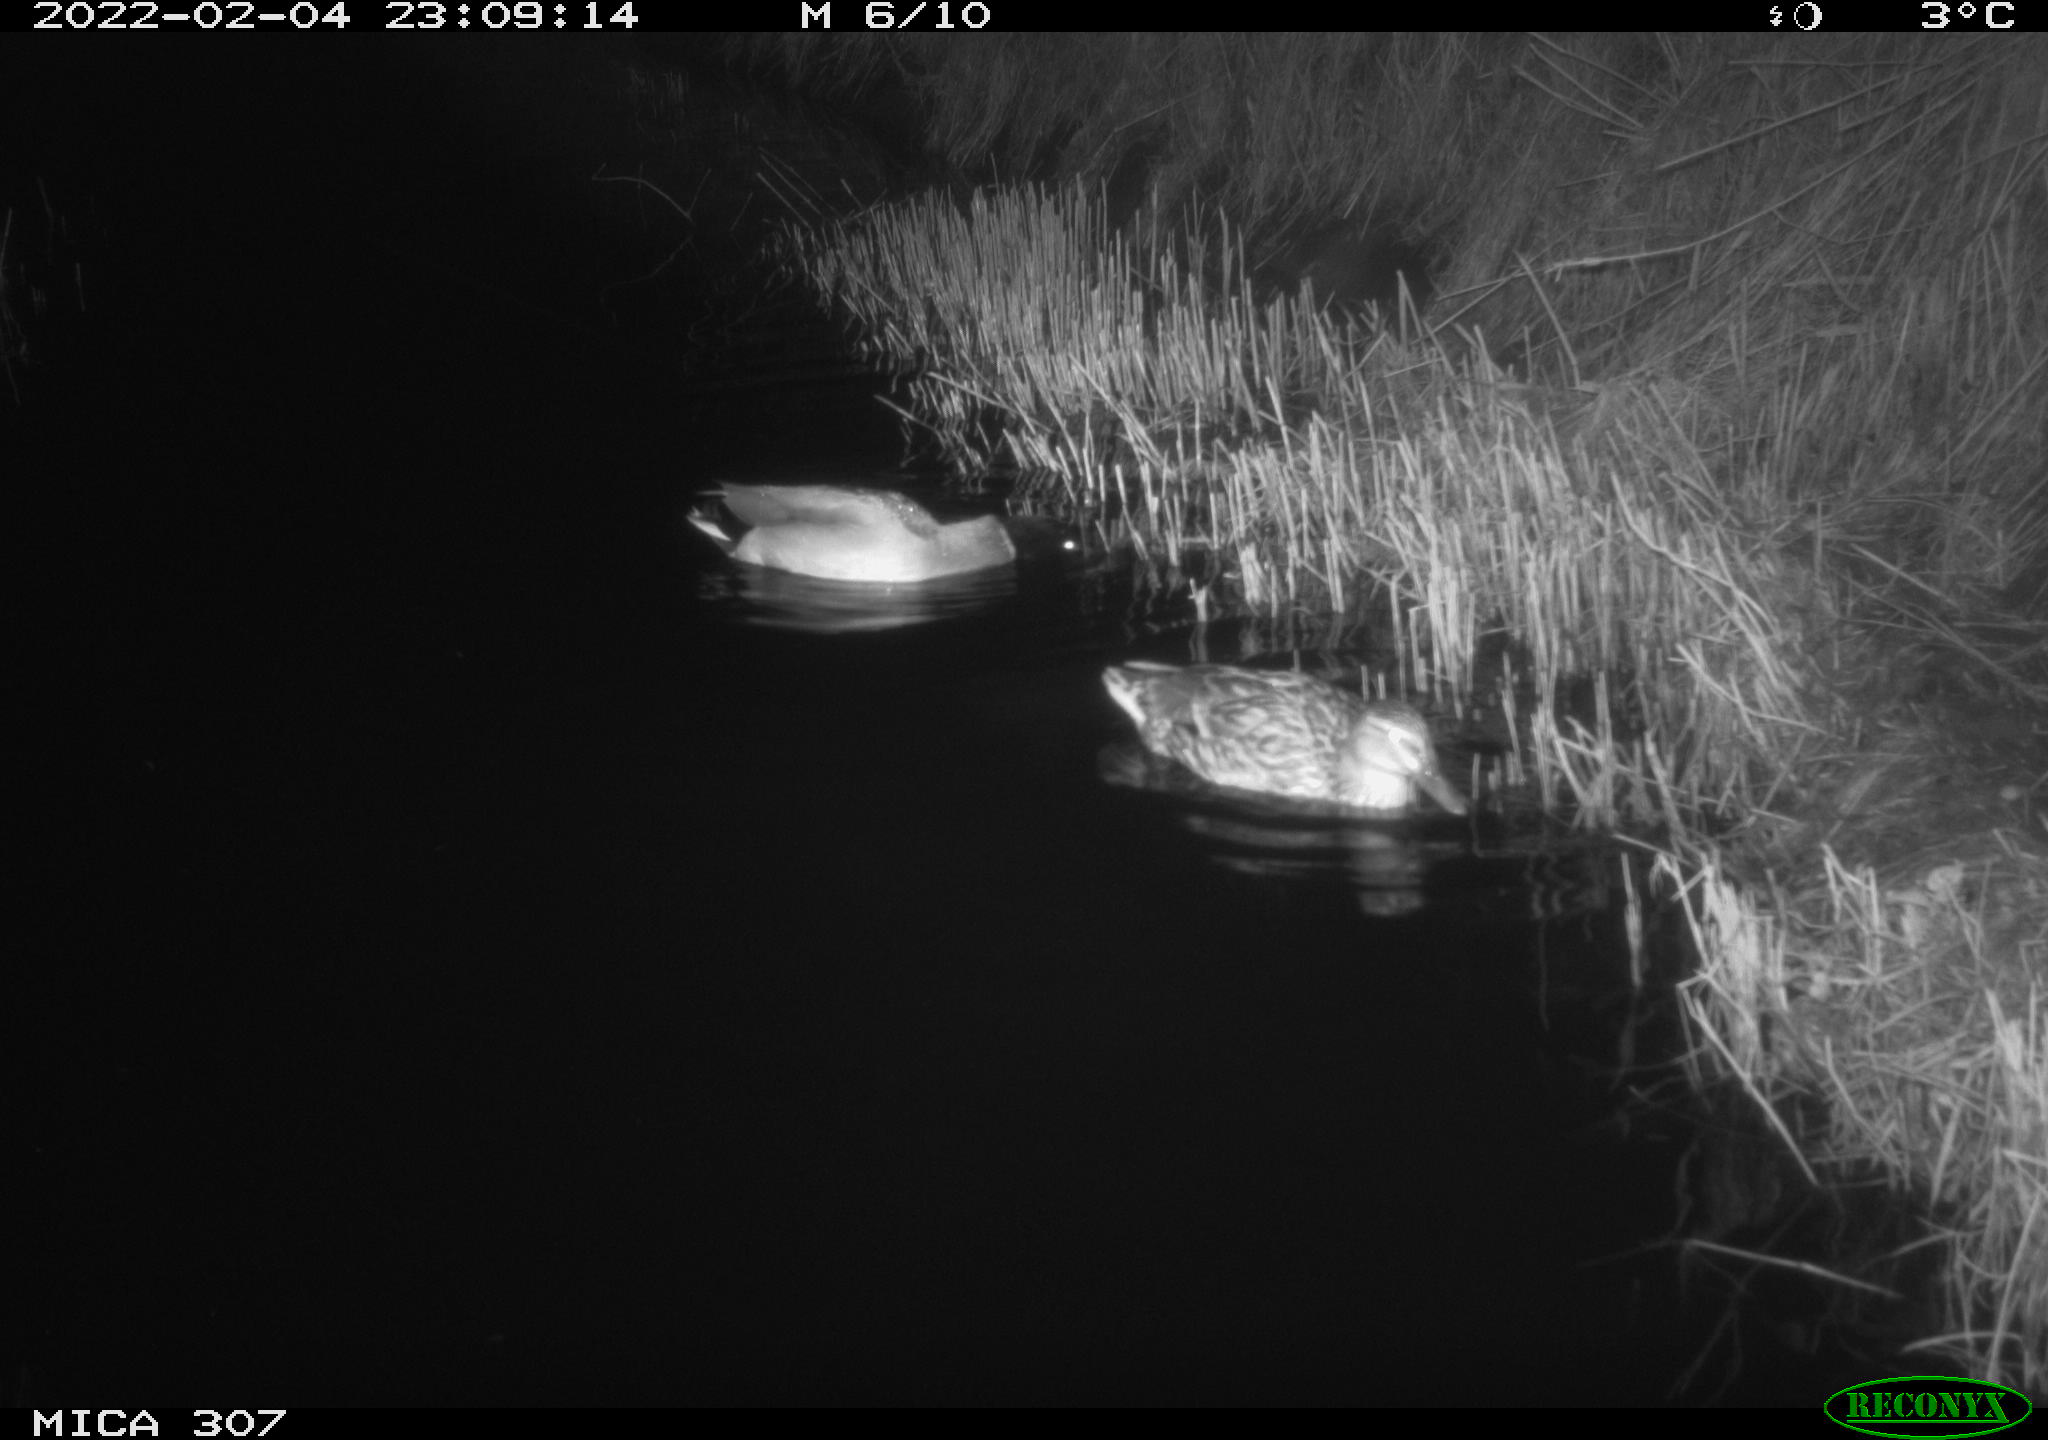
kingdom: Animalia
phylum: Chordata
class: Aves
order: Anseriformes
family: Anatidae
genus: Anas
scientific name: Anas platyrhynchos
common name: Mallard
